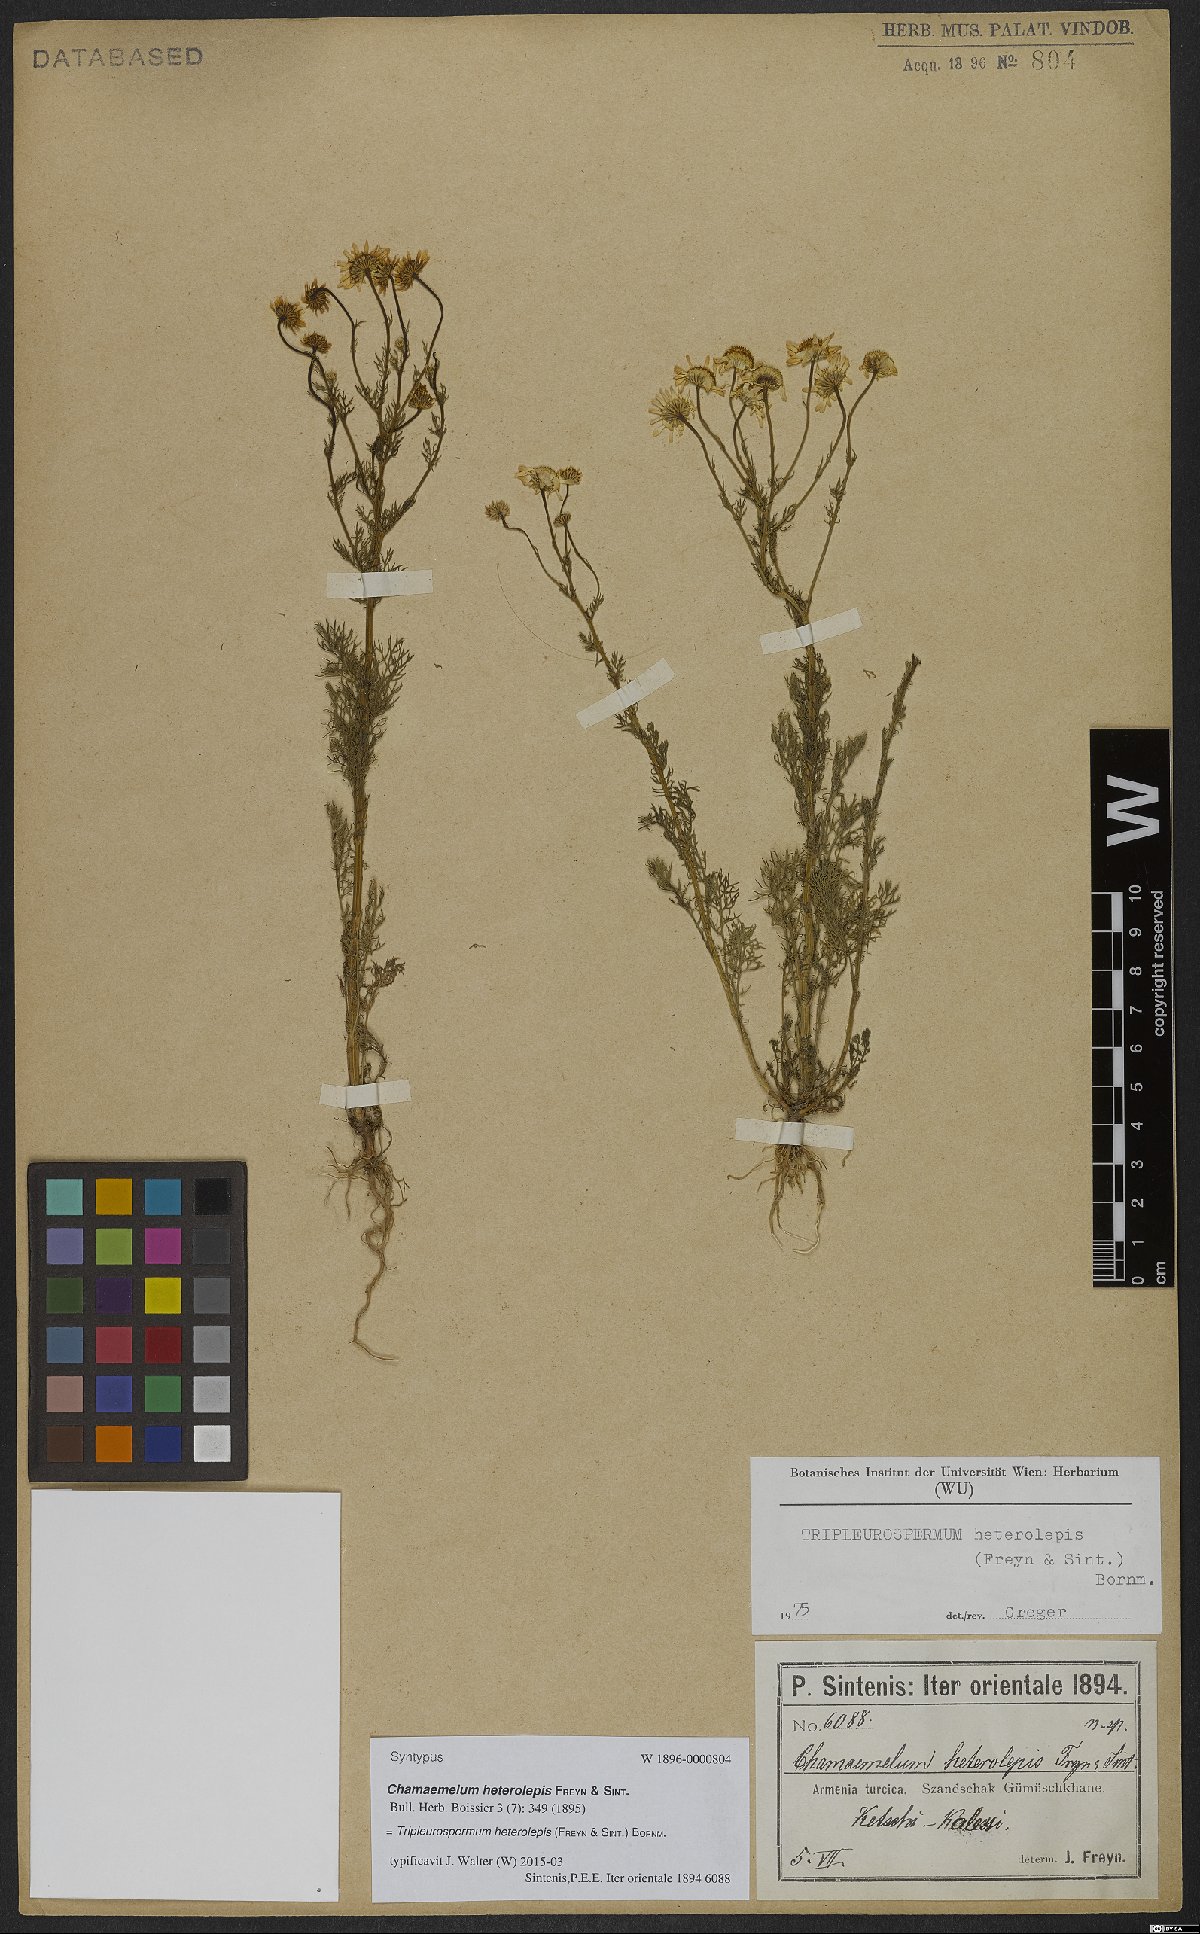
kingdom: Plantae
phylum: Tracheophyta
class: Magnoliopsida
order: Asterales
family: Asteraceae
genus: Tripleurospermum
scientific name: Tripleurospermum heterolepis
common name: Tripleurospermum
